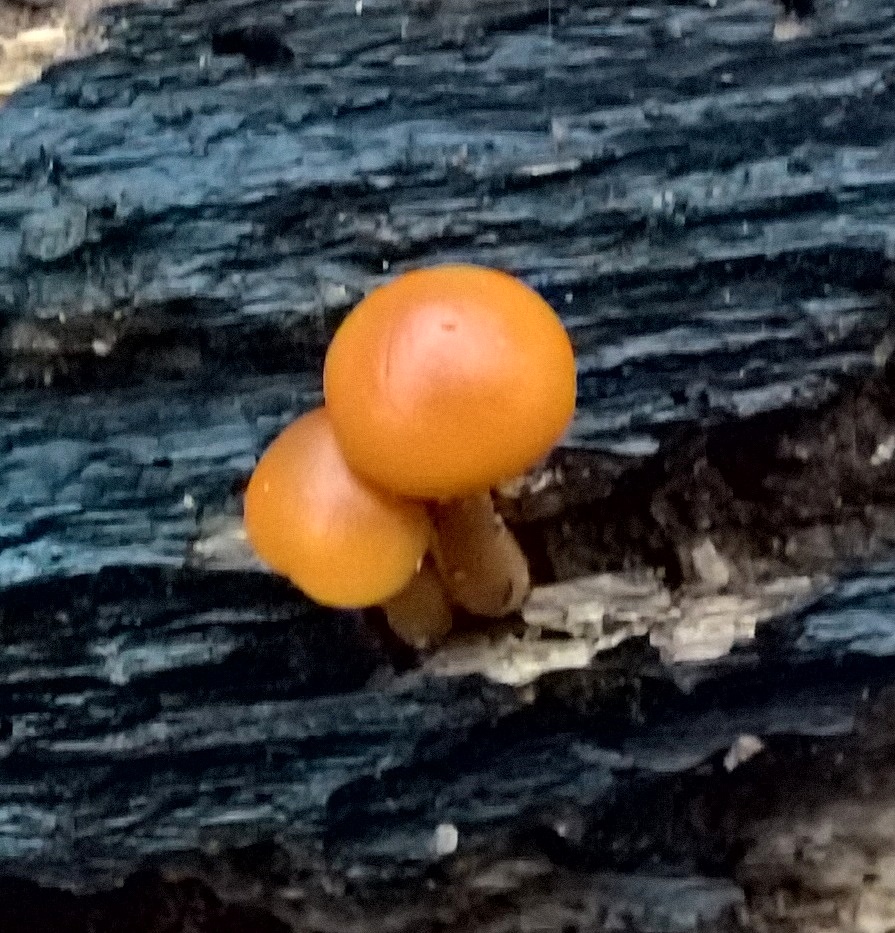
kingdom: Fungi
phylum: Basidiomycota
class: Agaricomycetes
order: Agaricales
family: Hymenogastraceae
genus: Galerina
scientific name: Galerina marginata
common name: randbæltet hjelmhat
